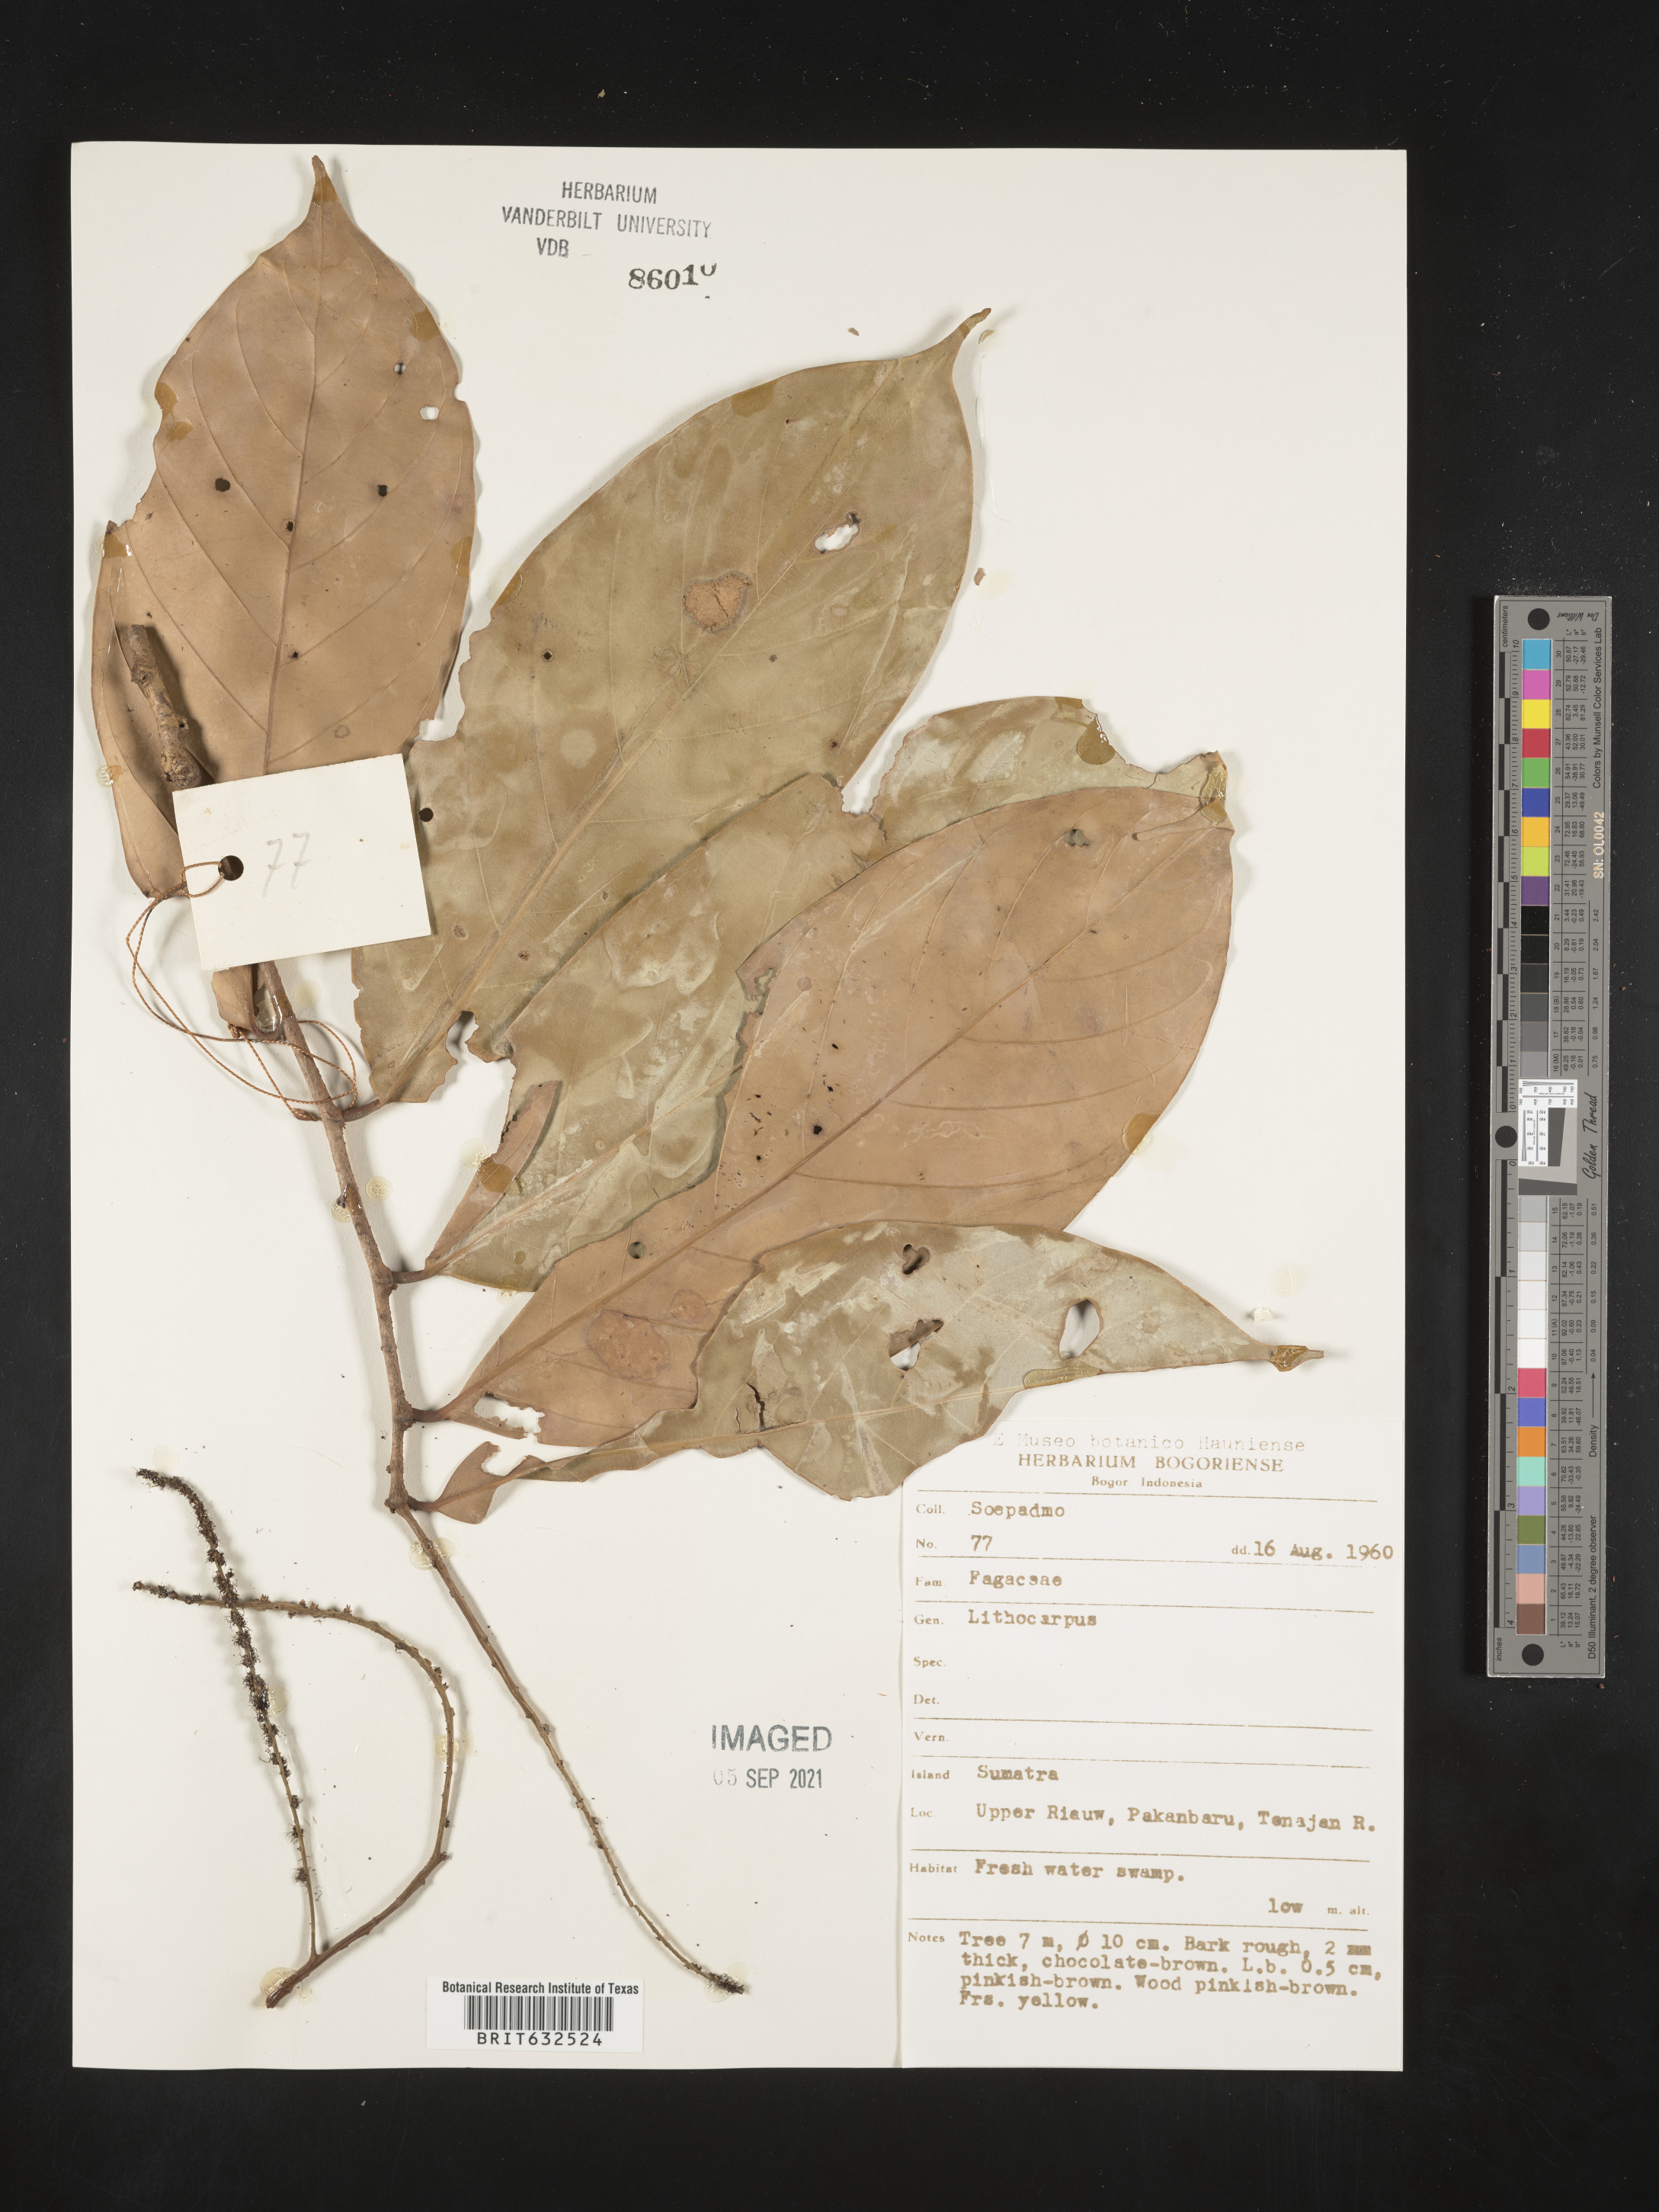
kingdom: Plantae
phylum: Tracheophyta
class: Magnoliopsida
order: Fagales
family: Fagaceae
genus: Lithocarpus
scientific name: Lithocarpus
